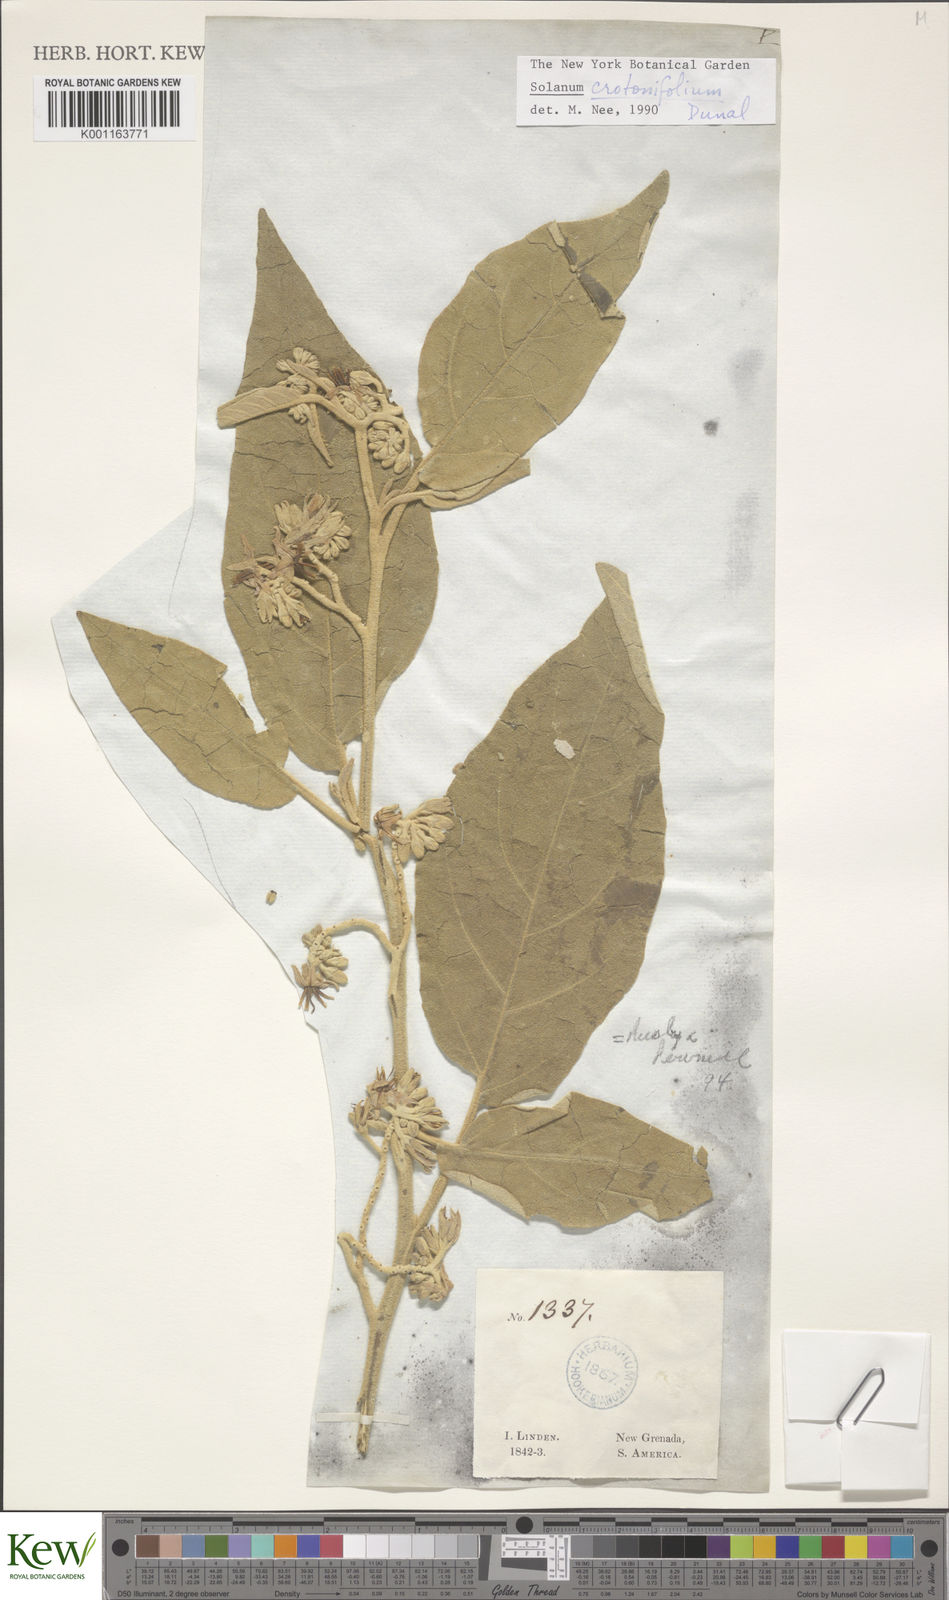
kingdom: Plantae
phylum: Tracheophyta
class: Magnoliopsida
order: Solanales
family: Solanaceae
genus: Solanum
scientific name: Solanum crotonifolium
